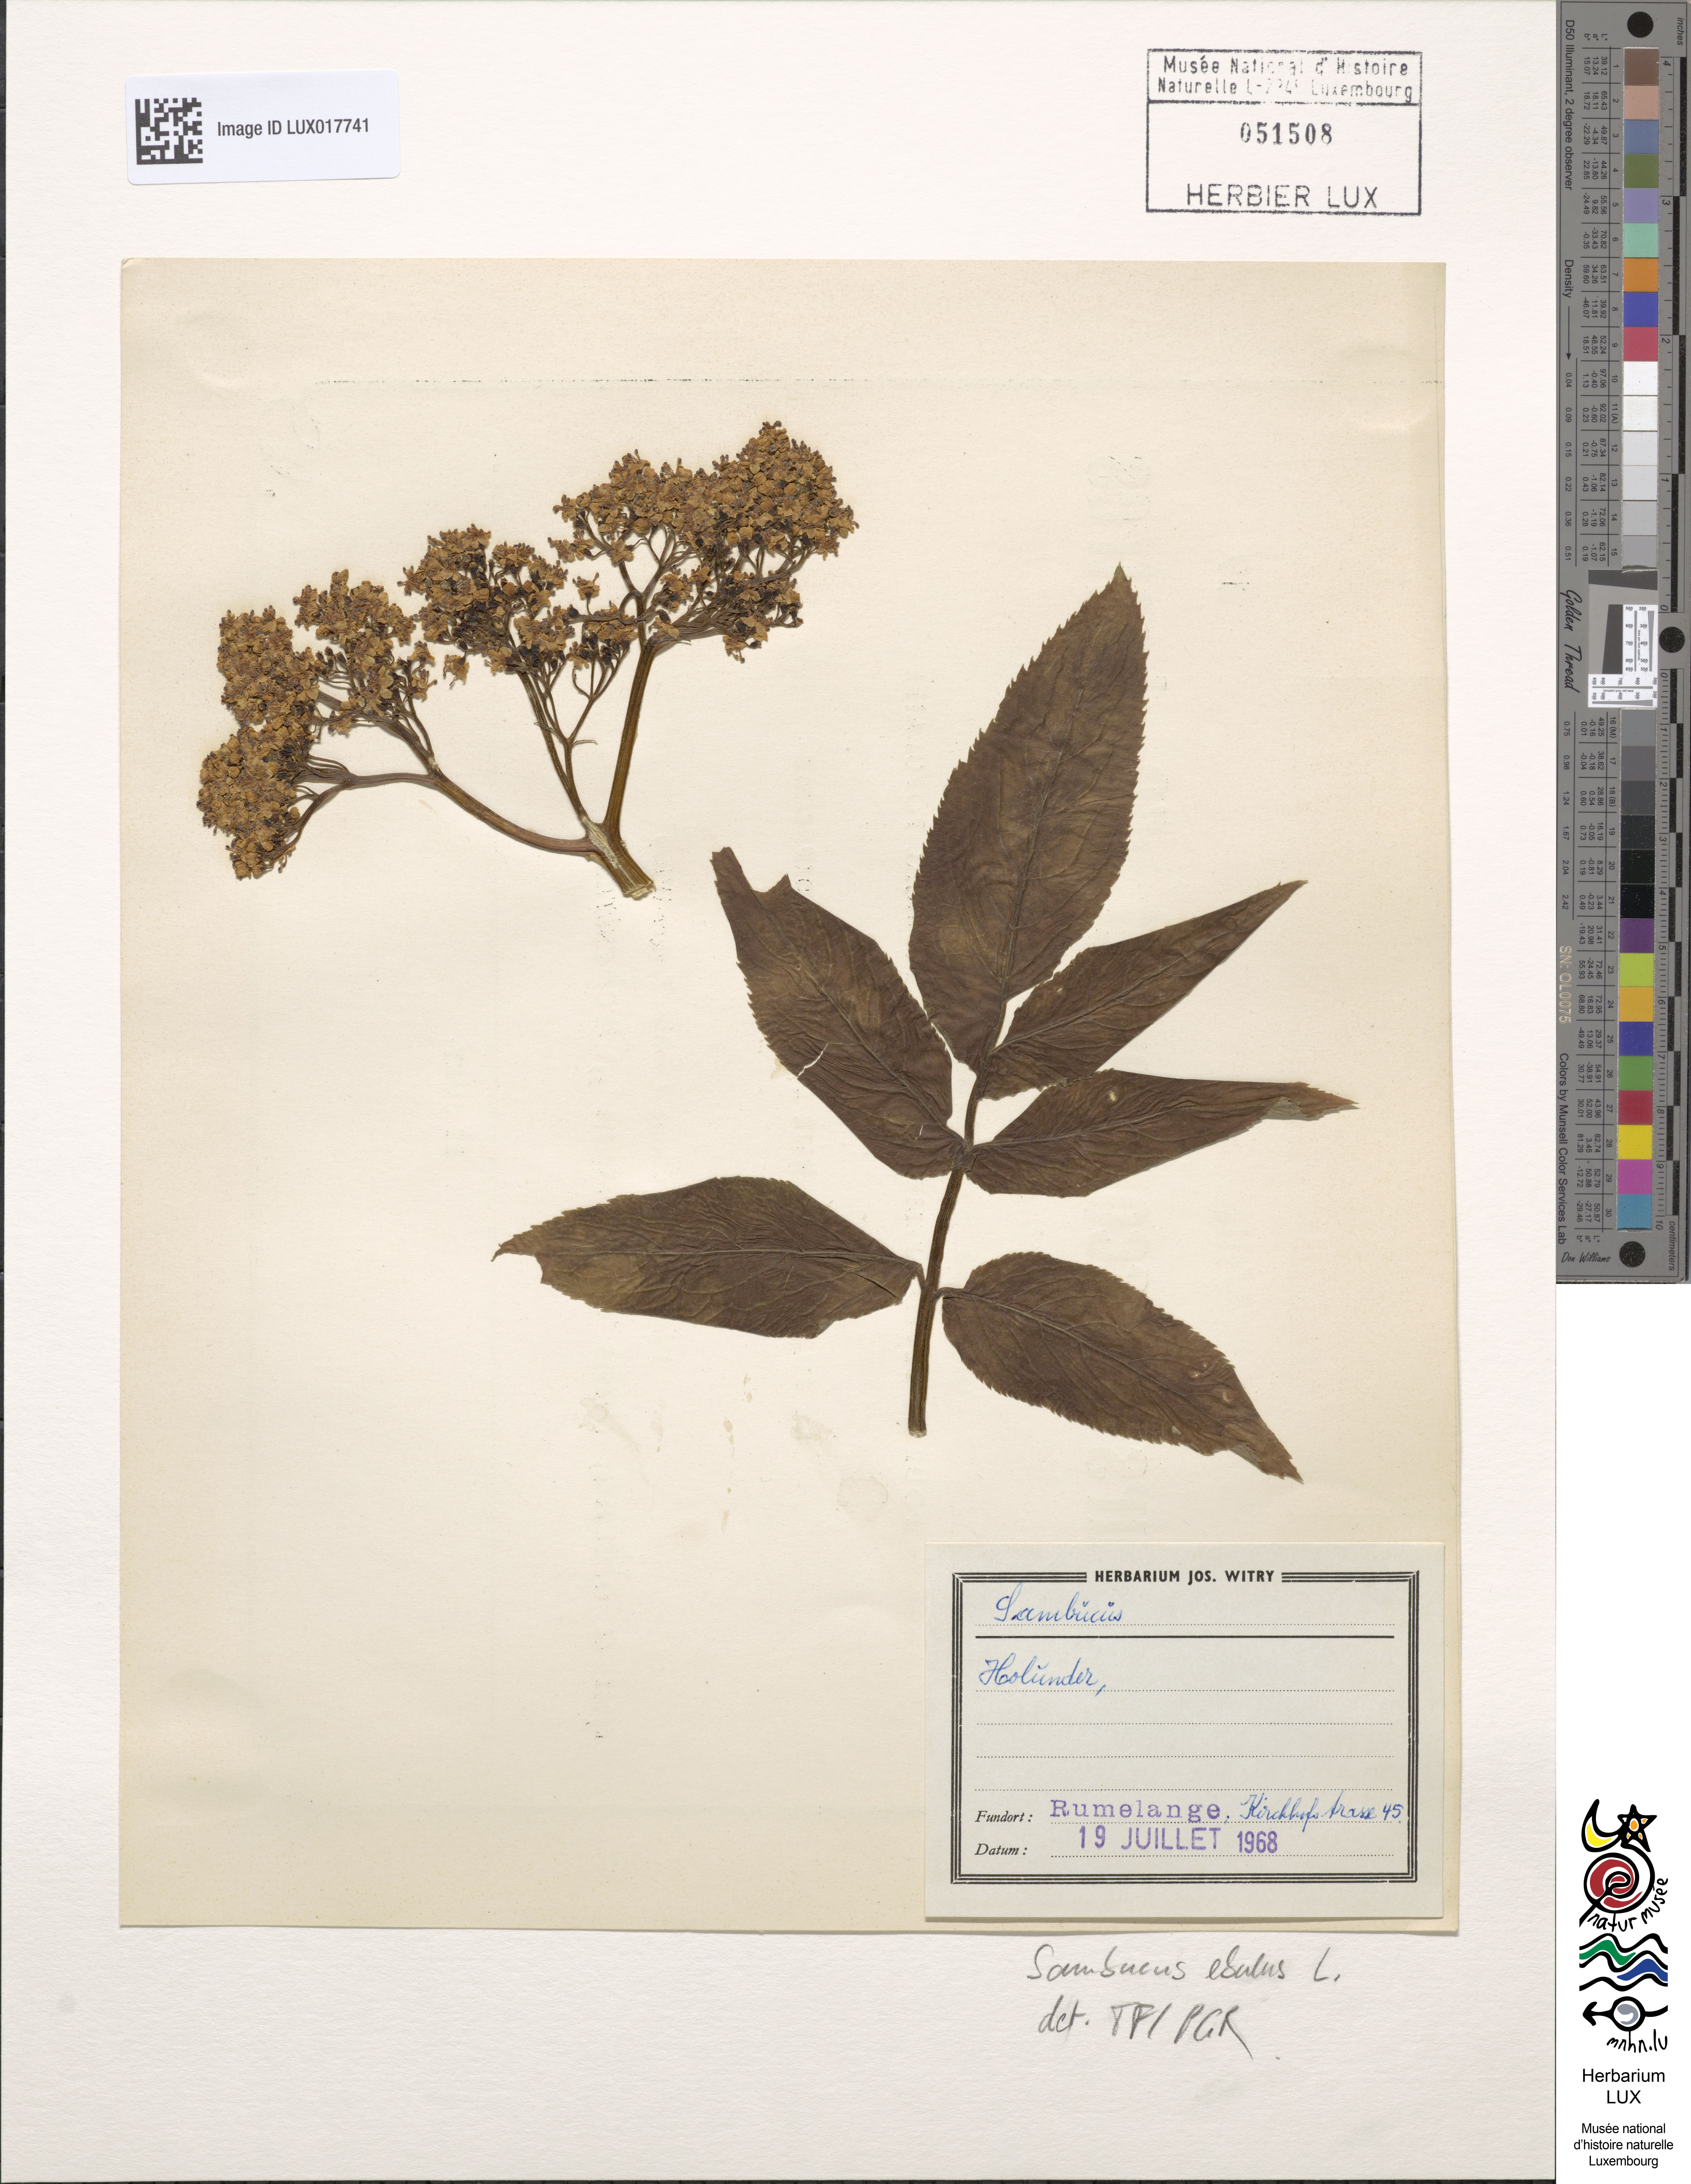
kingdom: Plantae
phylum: Tracheophyta
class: Magnoliopsida
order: Dipsacales
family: Viburnaceae
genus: Sambucus
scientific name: Sambucus ebulus
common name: Dwarf elder
